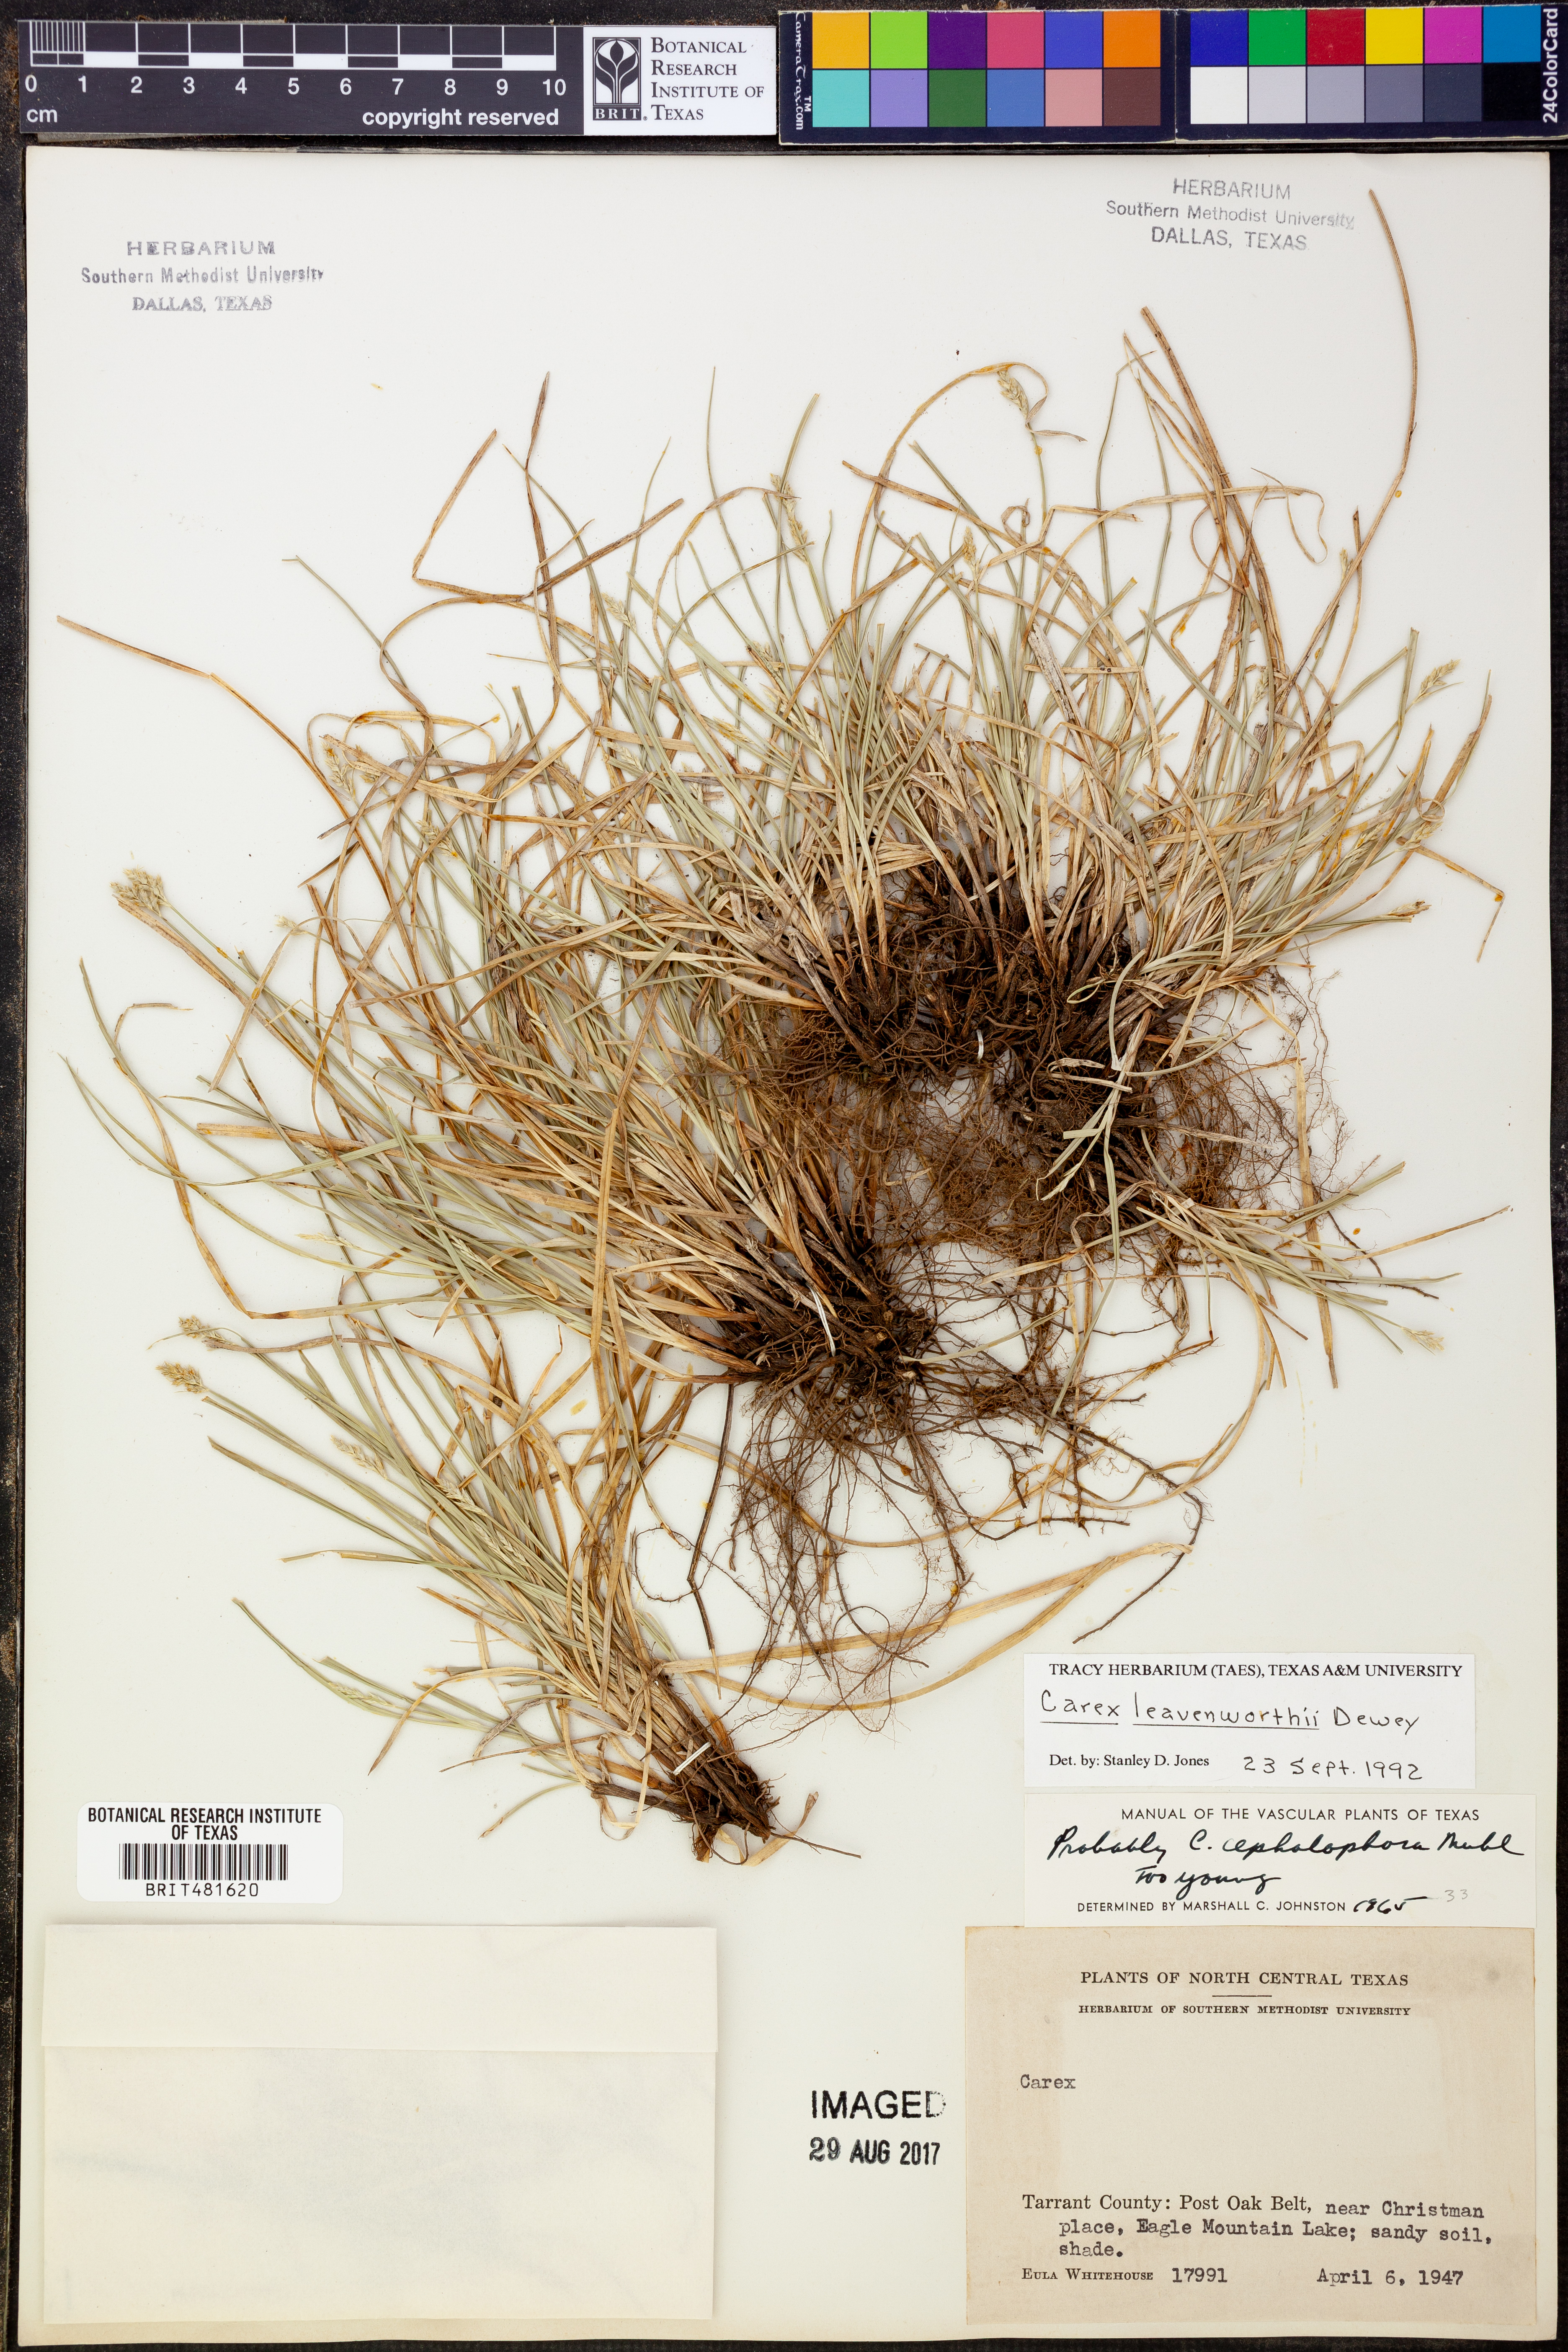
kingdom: Plantae
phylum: Tracheophyta
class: Liliopsida
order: Poales
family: Cyperaceae
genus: Carex
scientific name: Carex leavenworthii
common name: Leavenworth's bracted sedge
